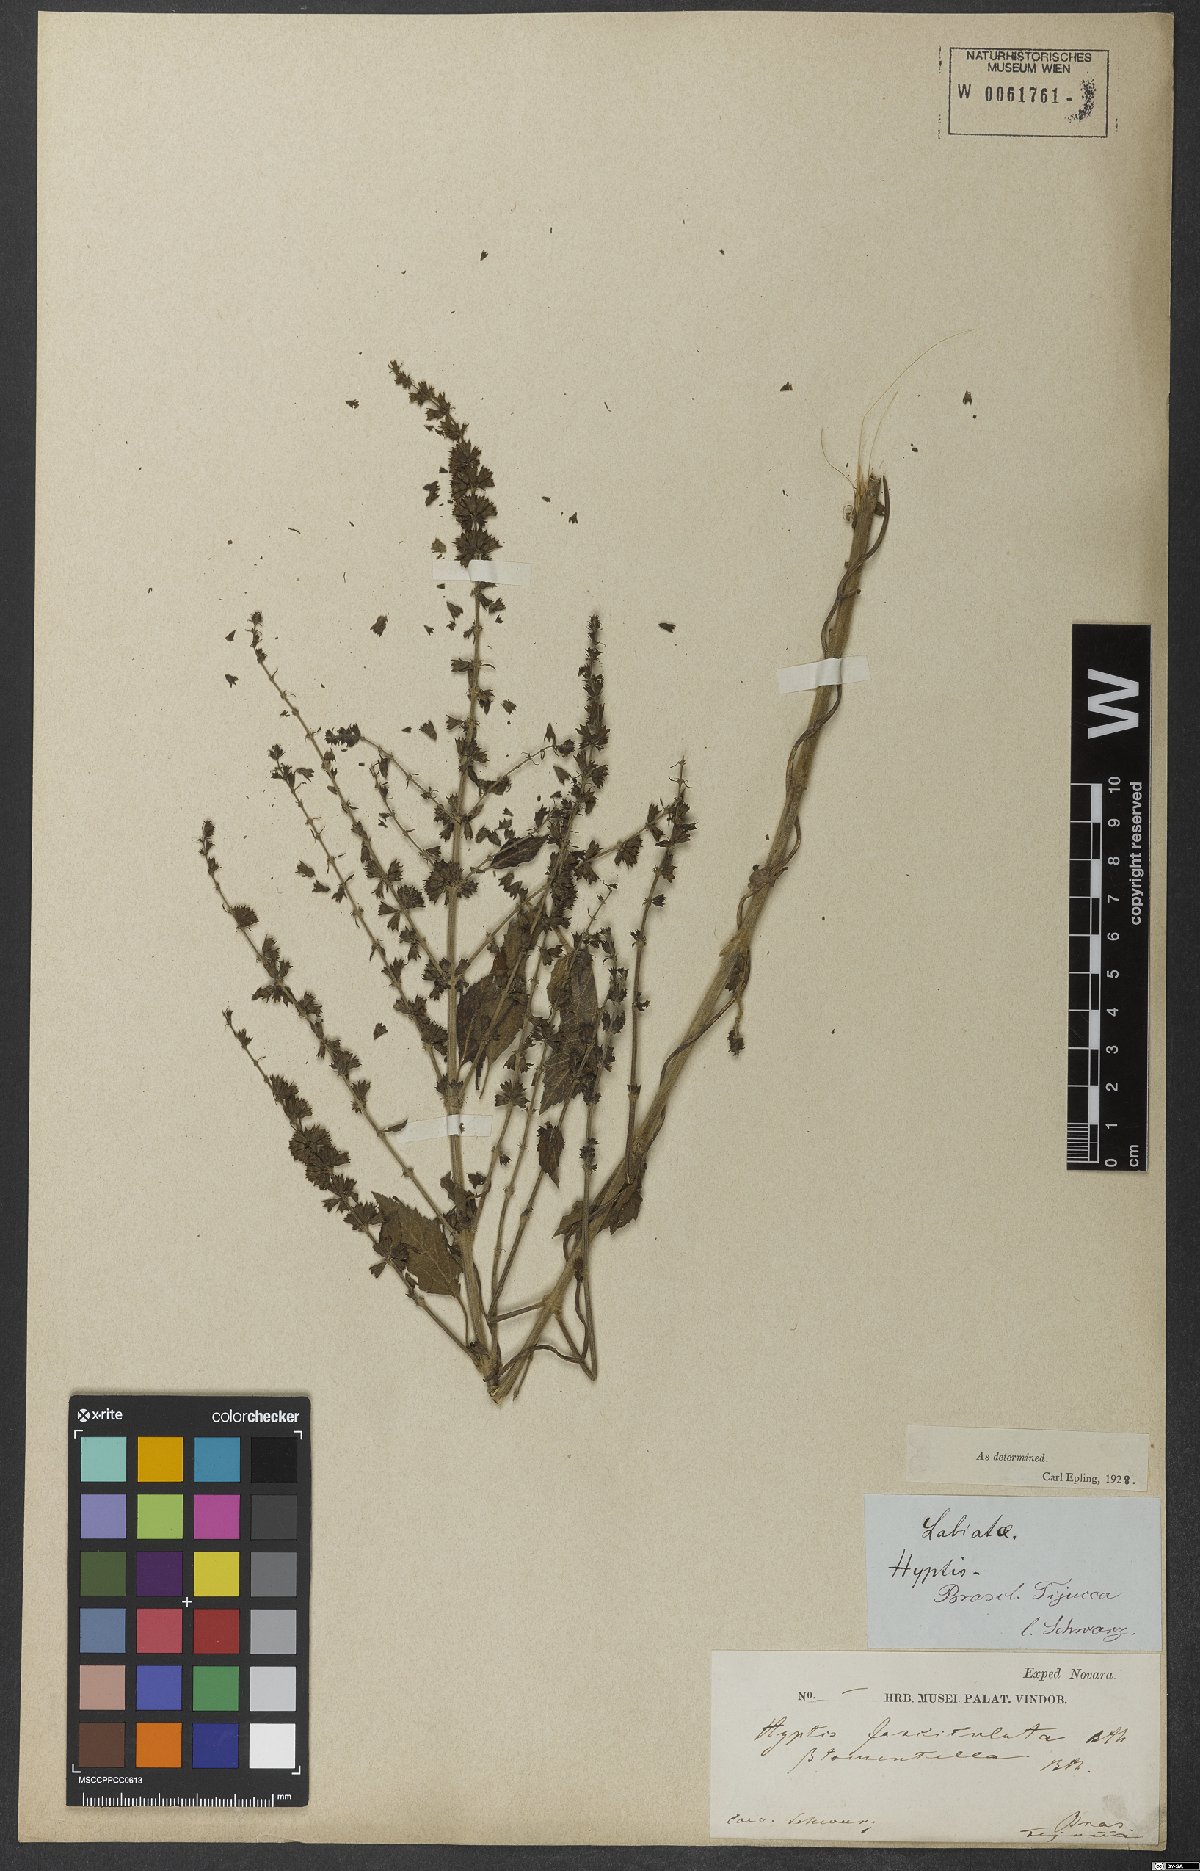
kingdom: Plantae
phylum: Tracheophyta
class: Magnoliopsida
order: Lamiales
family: Lamiaceae
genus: Condea
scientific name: Condea undulata
